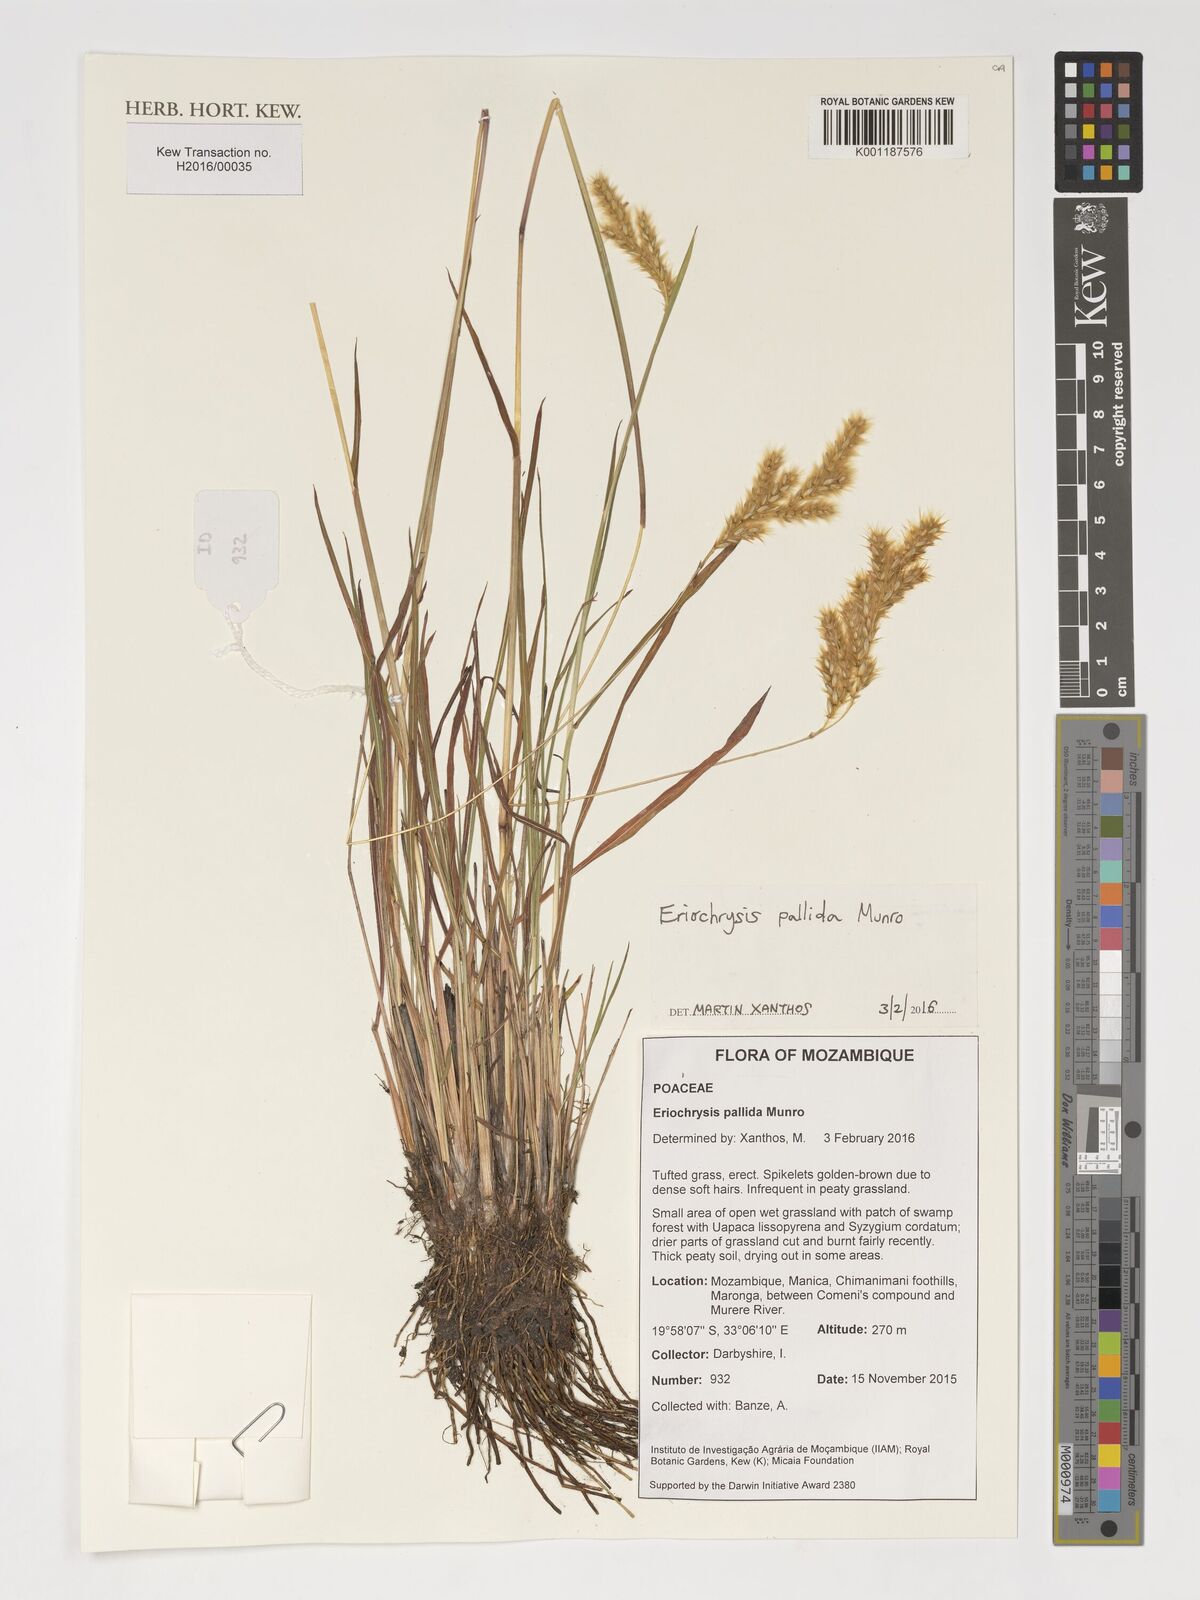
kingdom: Plantae
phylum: Tracheophyta
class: Liliopsida
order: Poales
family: Poaceae
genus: Eriochrysis
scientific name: Eriochrysis pallida
